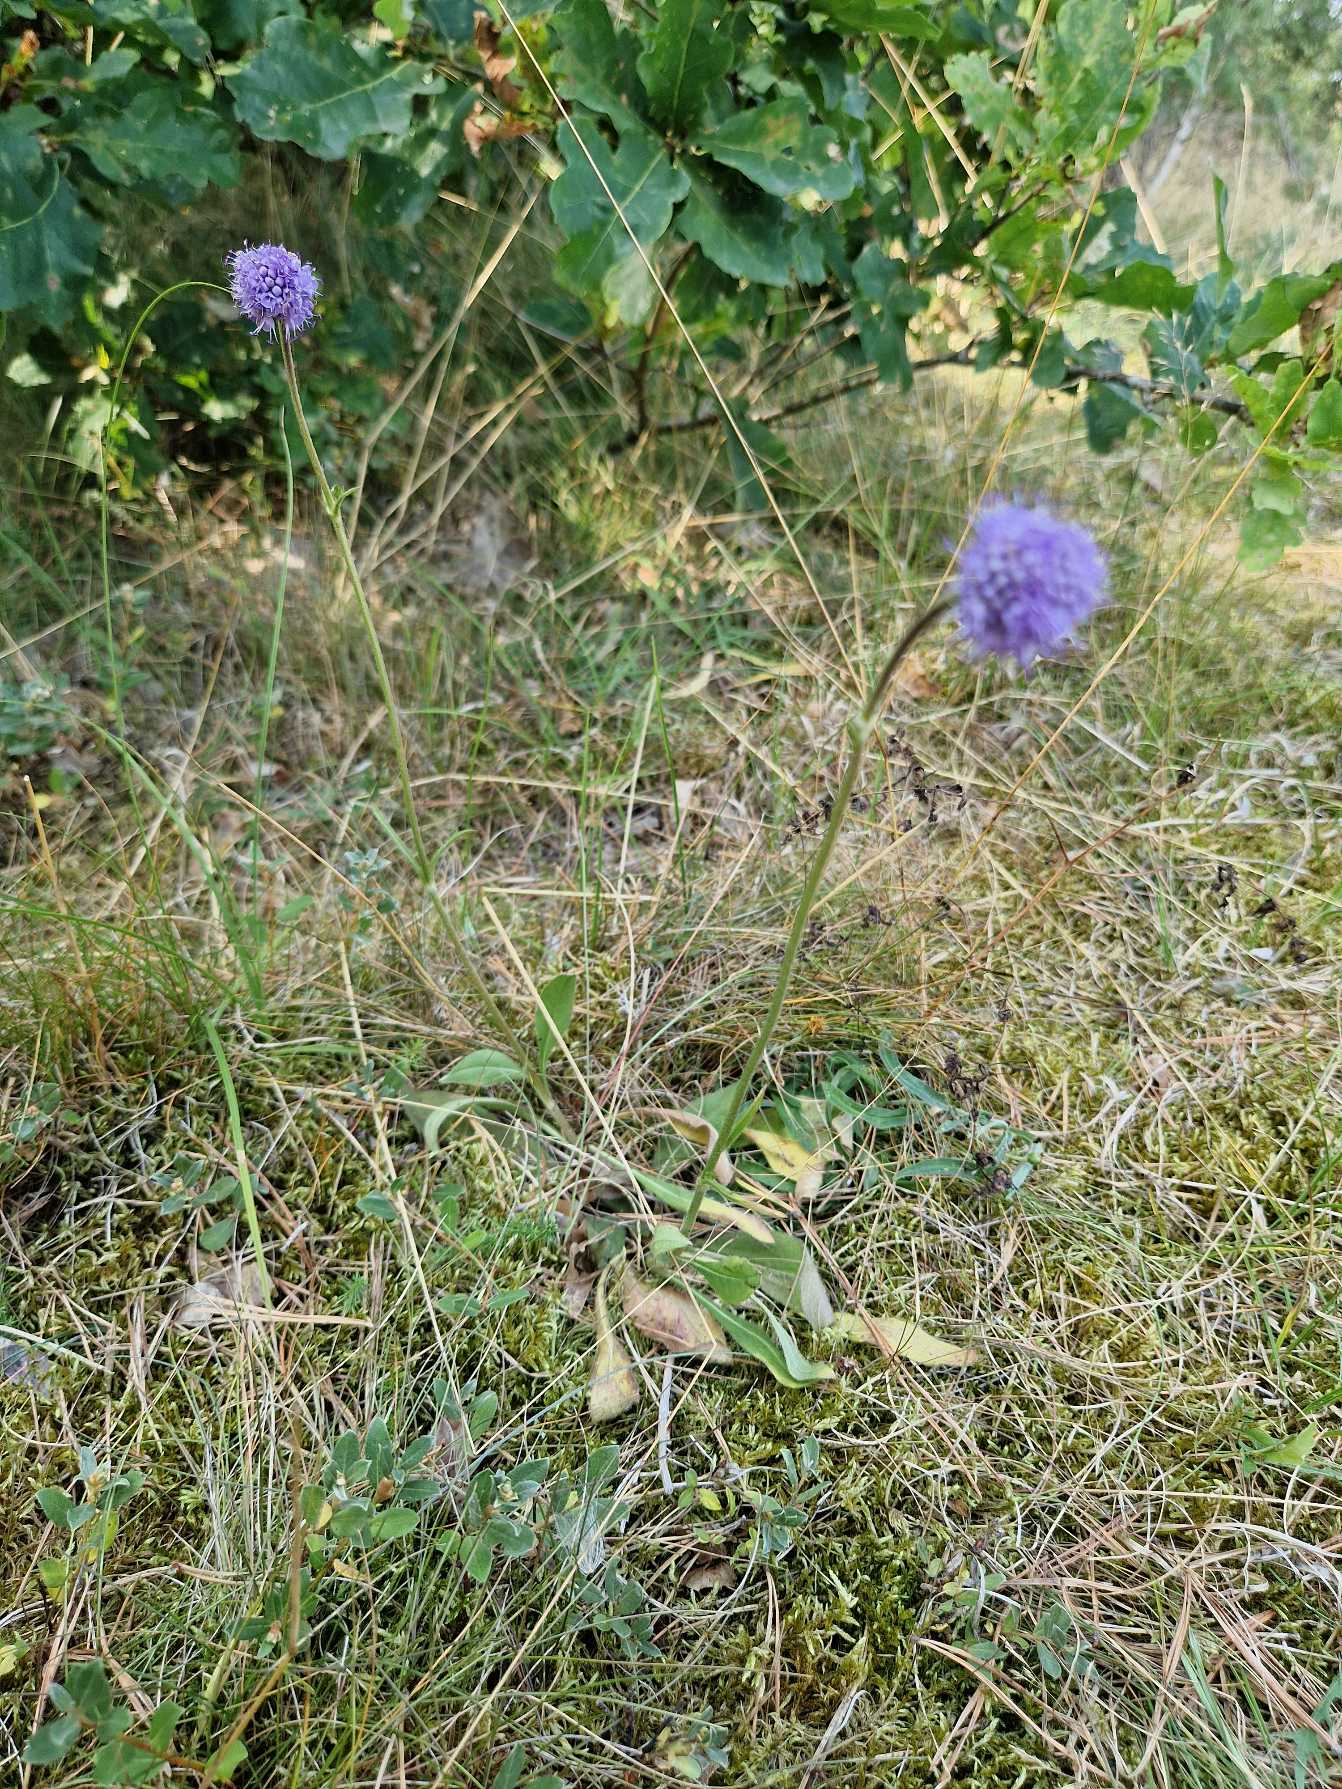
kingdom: Plantae
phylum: Tracheophyta
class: Magnoliopsida
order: Dipsacales
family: Caprifoliaceae
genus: Succisa
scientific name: Succisa pratensis
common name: Djævelsbid
